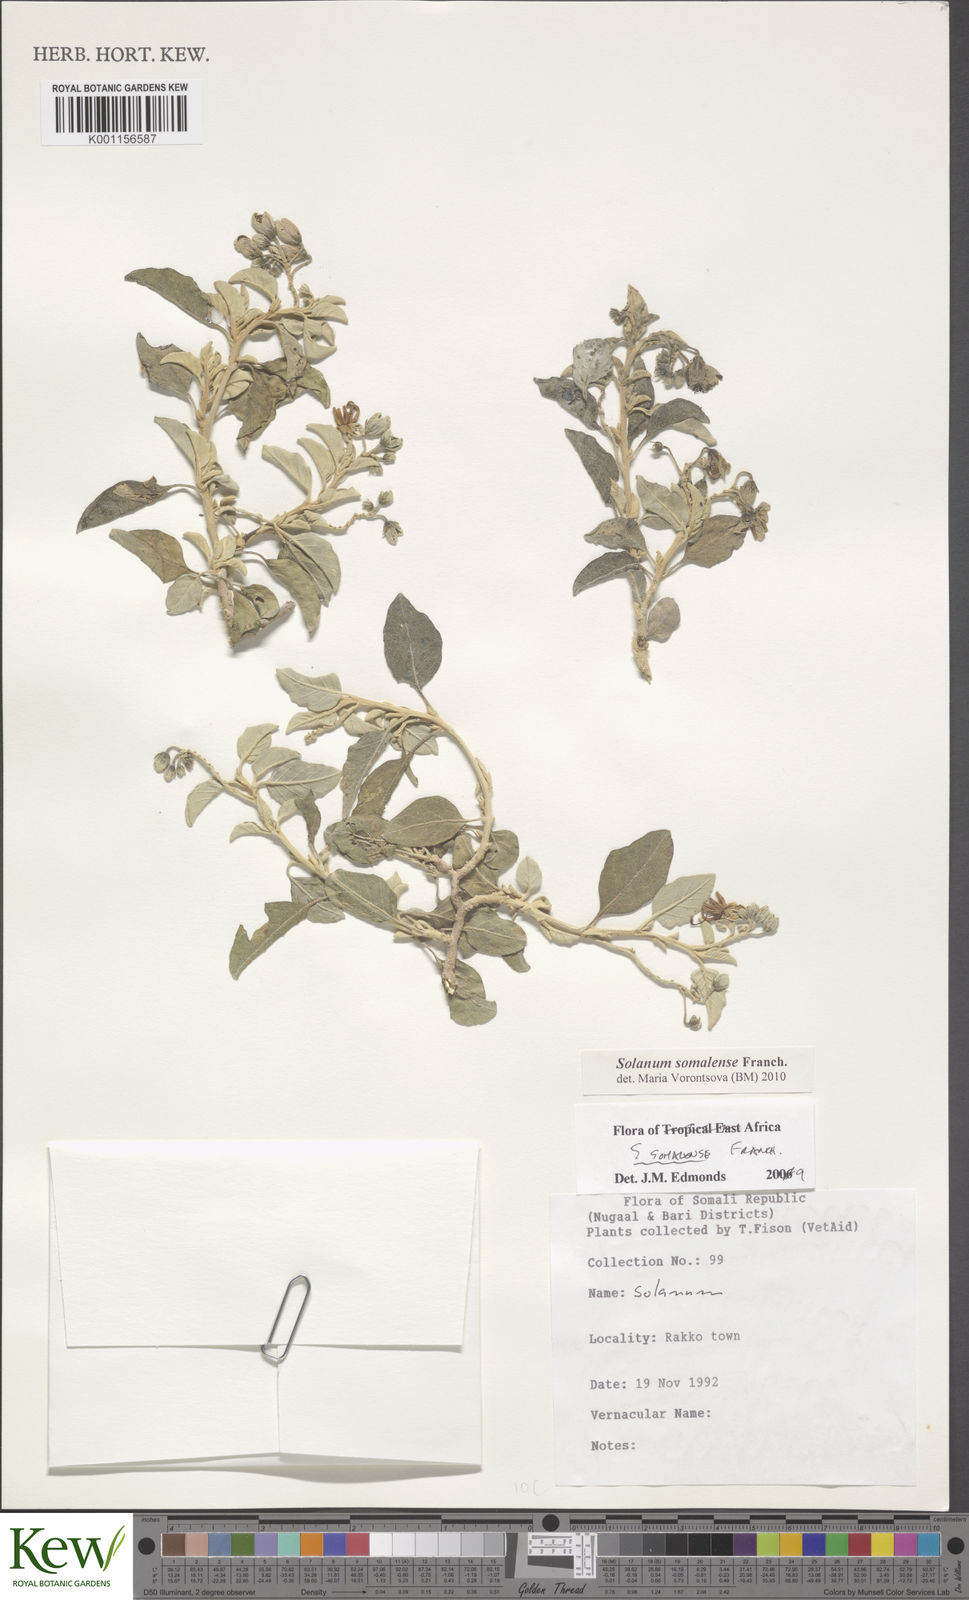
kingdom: Plantae
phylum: Tracheophyta
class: Magnoliopsida
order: Solanales
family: Solanaceae
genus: Solanum
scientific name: Solanum somalense
